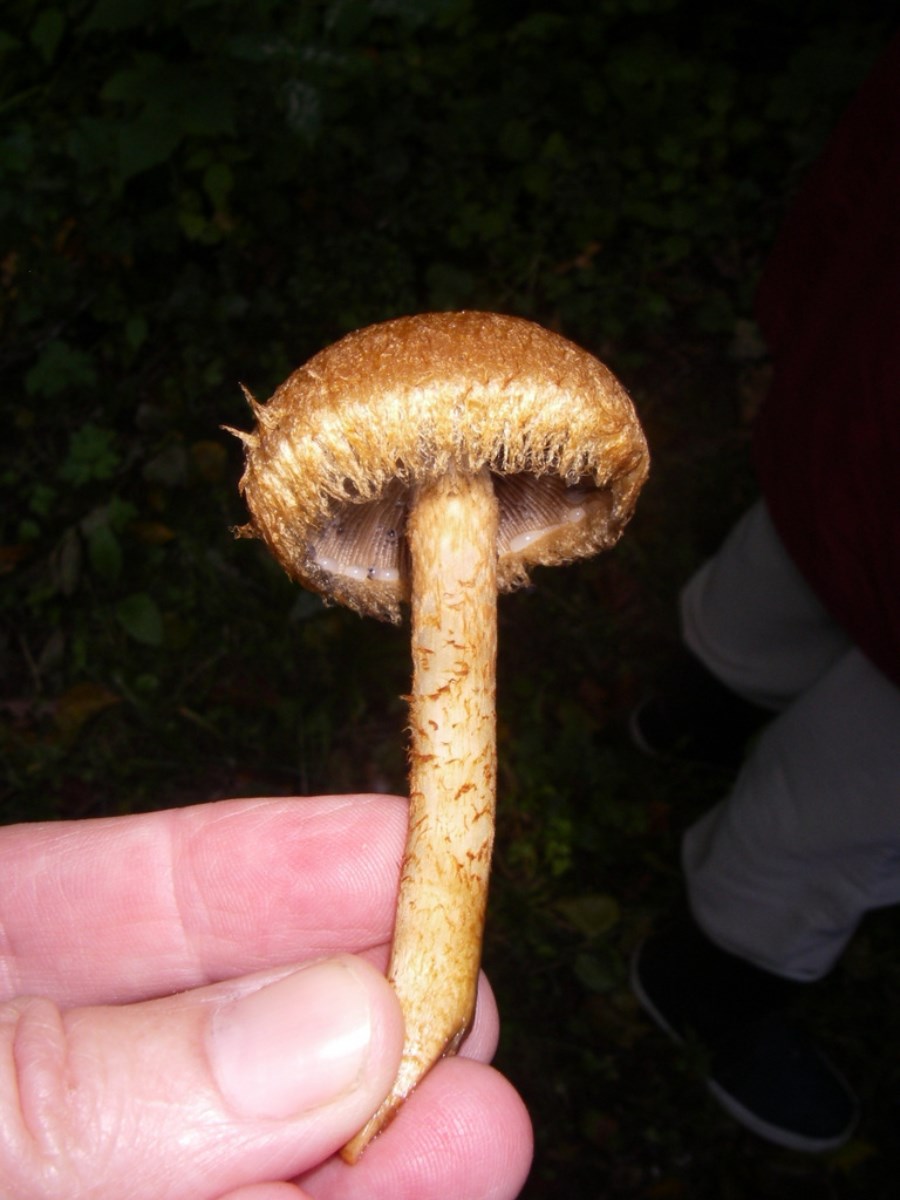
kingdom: Fungi
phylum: Basidiomycota
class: Agaricomycetes
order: Agaricales
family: Psathyrellaceae
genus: Lacrymaria
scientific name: Lacrymaria pyrotricha
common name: ildhåret mørkhat
